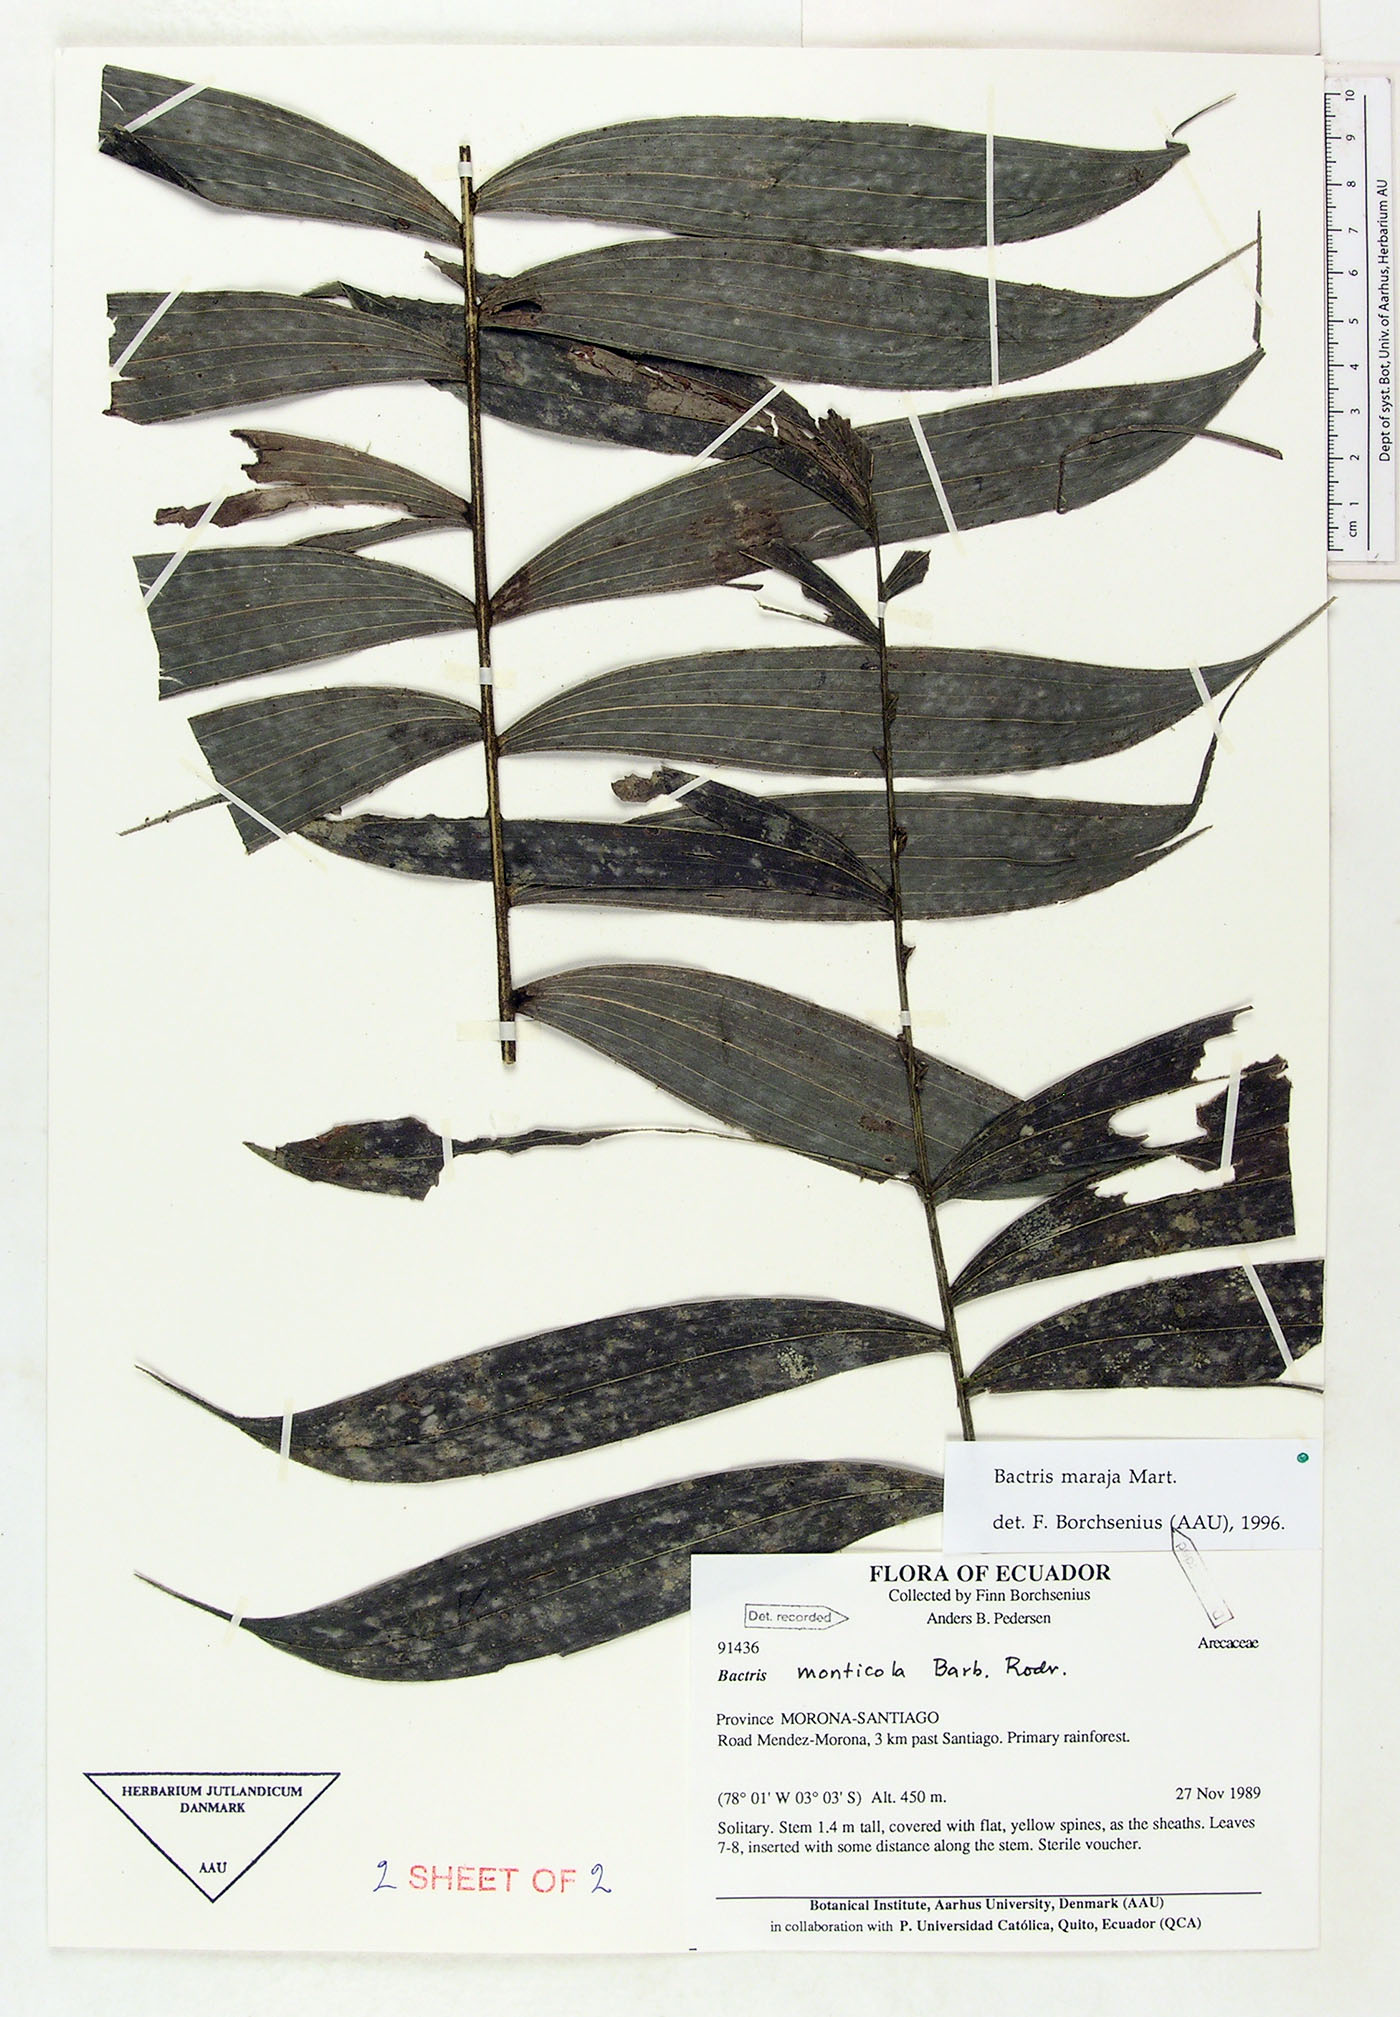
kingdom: Plantae
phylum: Tracheophyta
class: Liliopsida
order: Arecales
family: Arecaceae
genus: Bactris
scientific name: Bactris maraja
